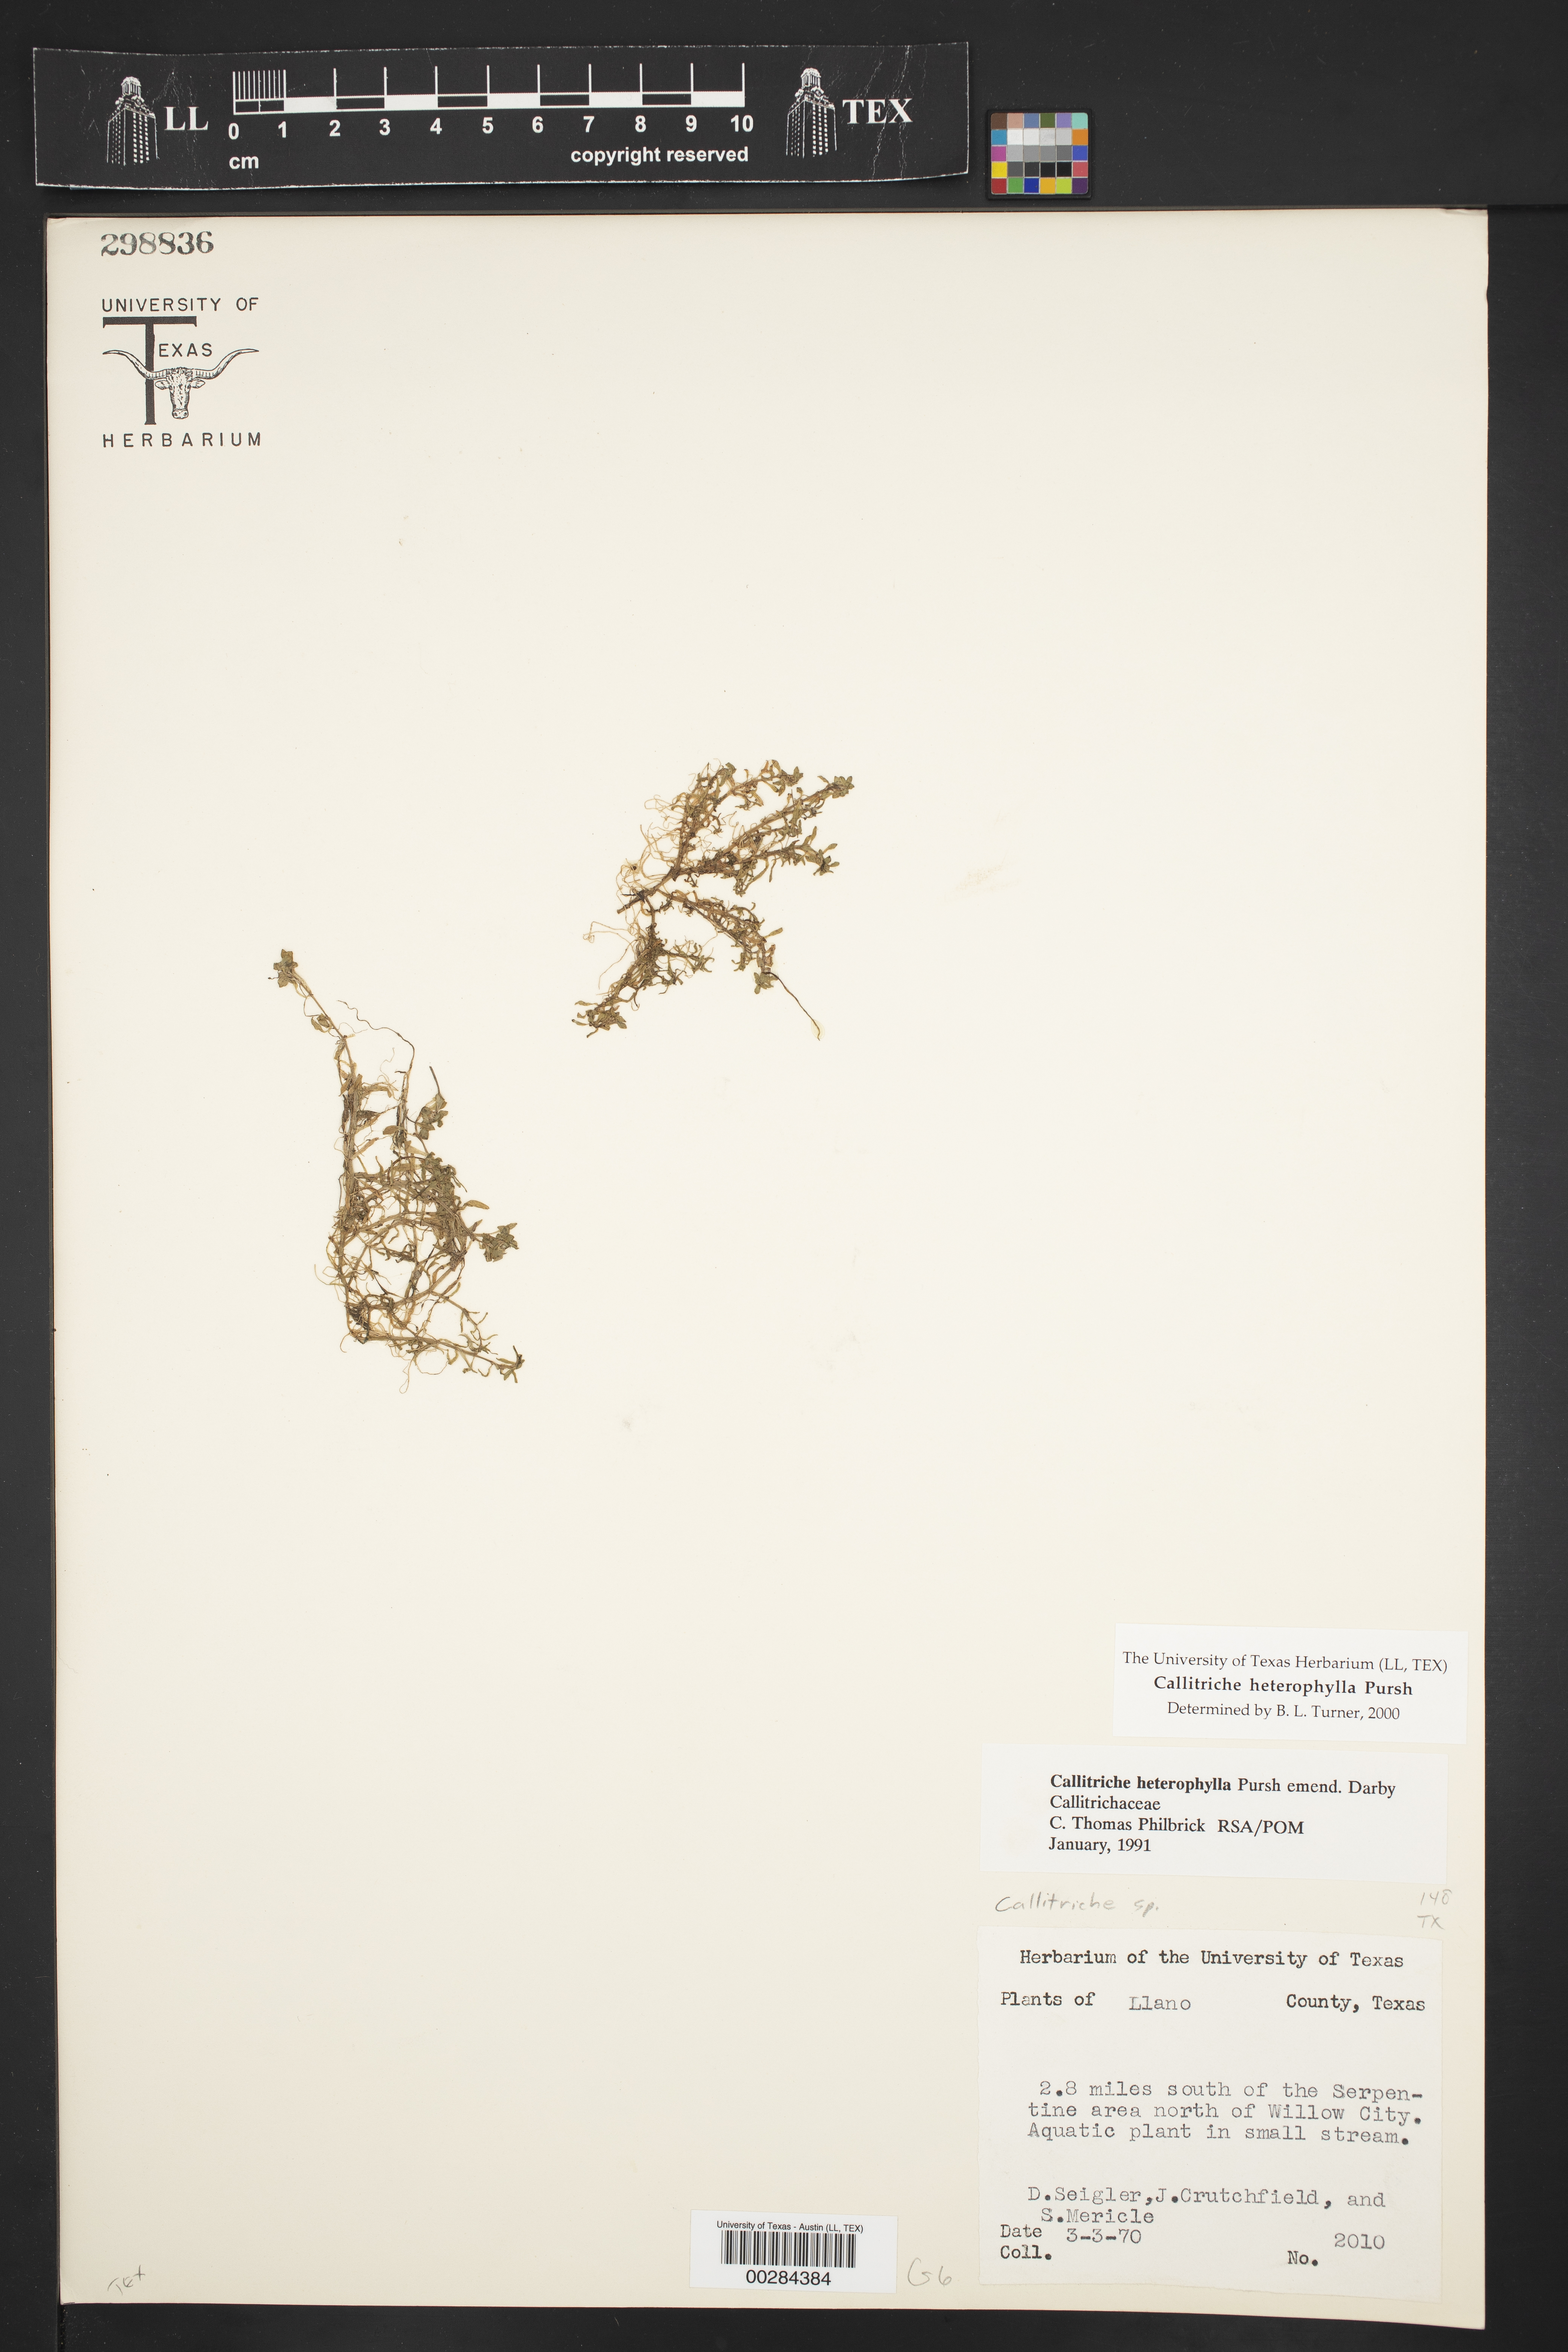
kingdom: Plantae
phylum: Tracheophyta
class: Magnoliopsida
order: Lamiales
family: Plantaginaceae
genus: Callitriche
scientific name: Callitriche heterophylla
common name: Two-headed water-starwort
